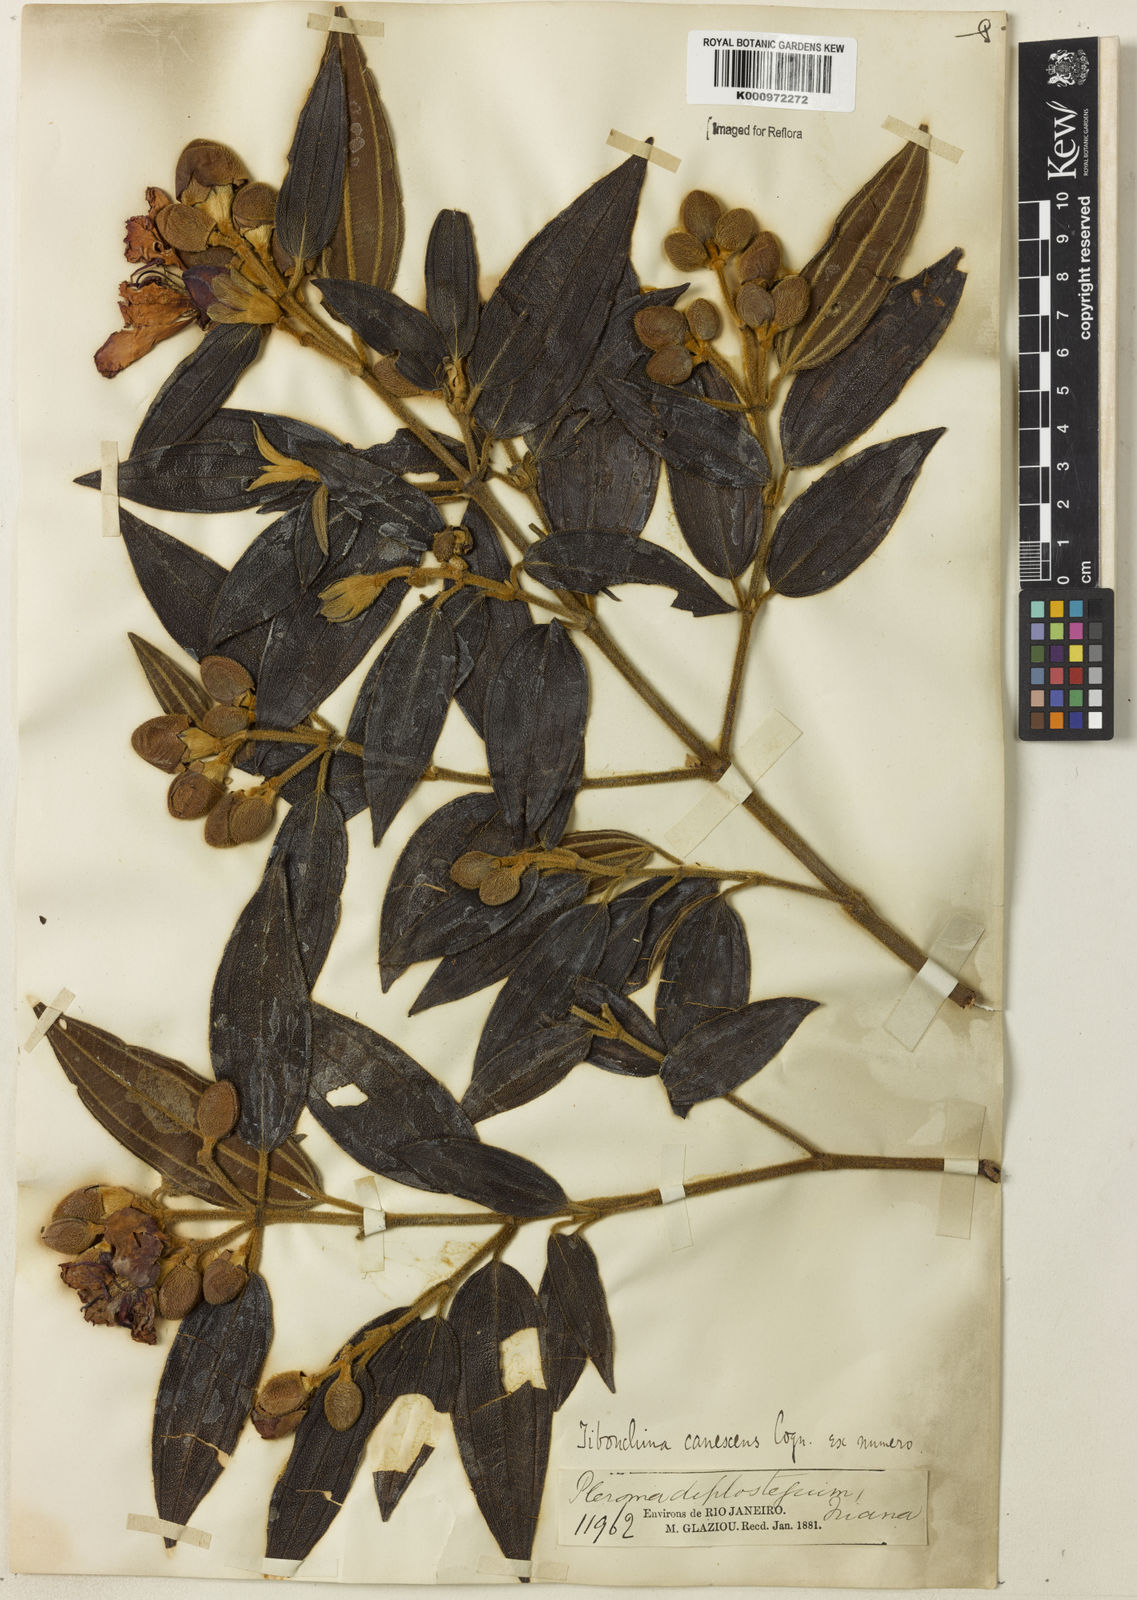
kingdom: Plantae
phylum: Tracheophyta
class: Magnoliopsida
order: Myrtales
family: Melastomataceae
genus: Pleroma
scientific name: Pleroma canescens
